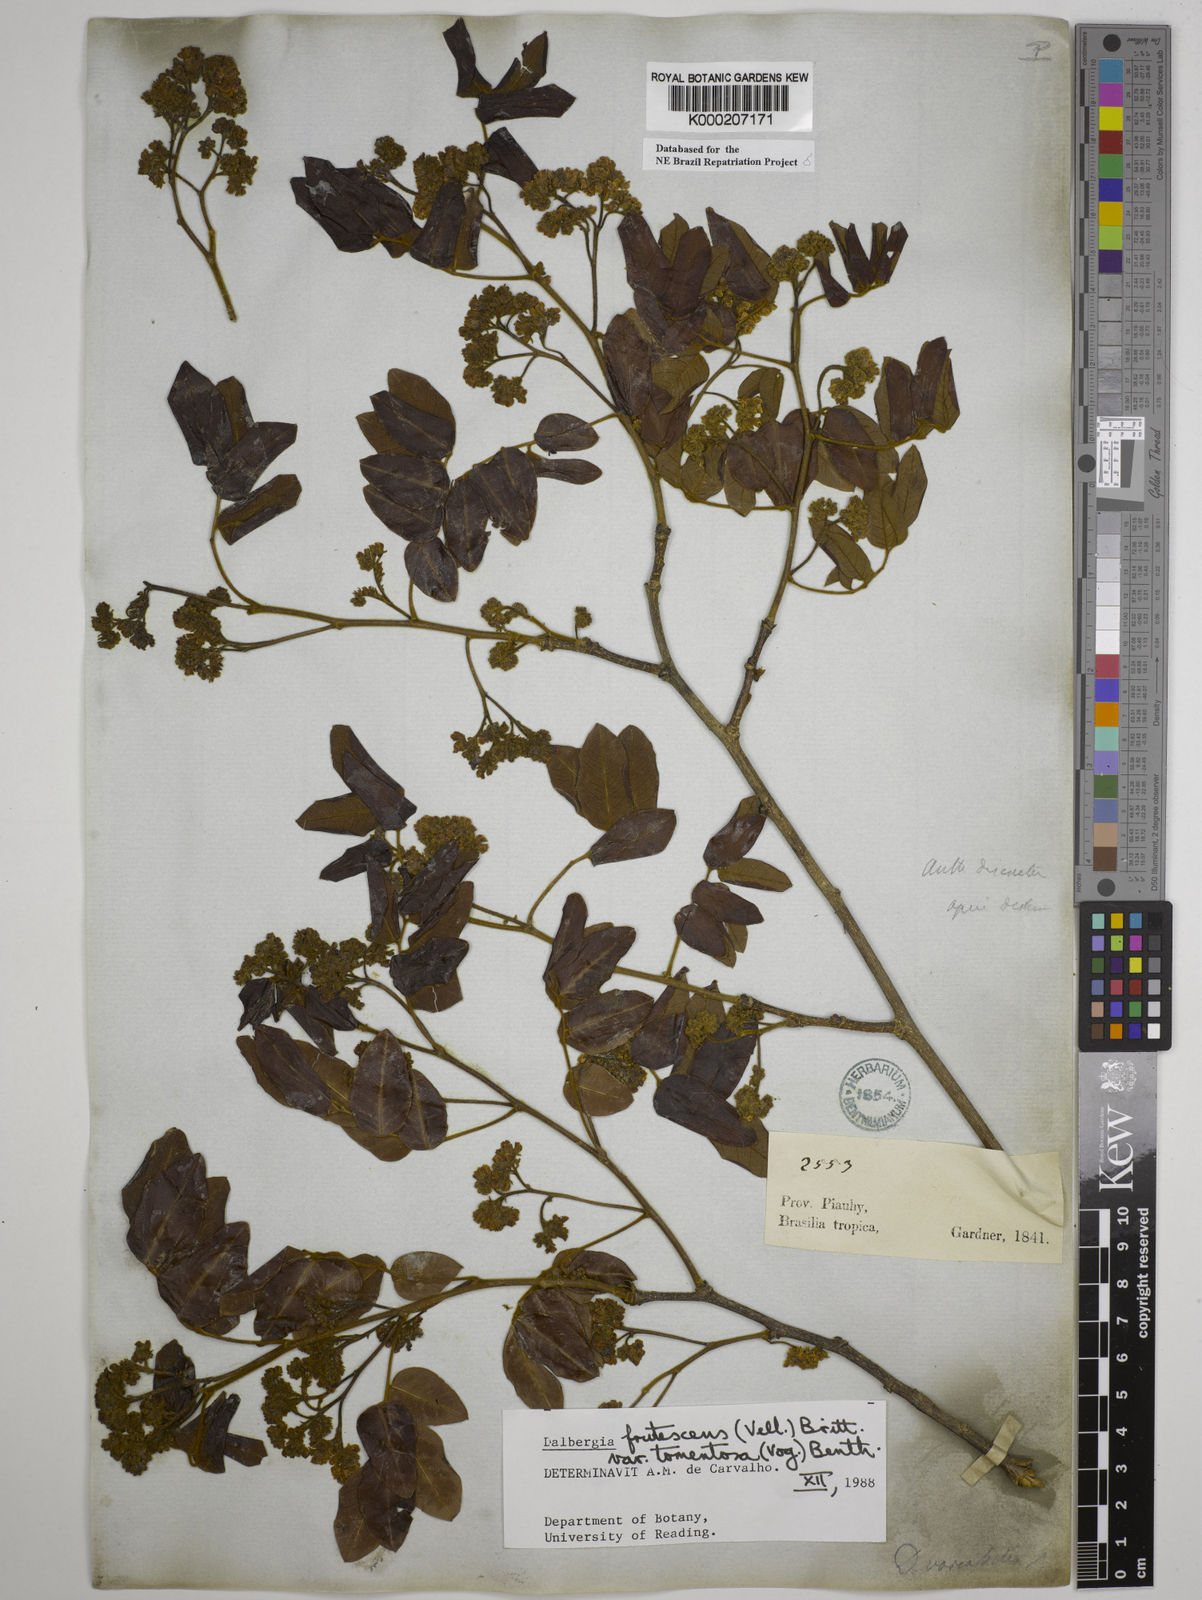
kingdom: Plantae
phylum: Tracheophyta
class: Magnoliopsida
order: Fabales
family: Fabaceae
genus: Dalbergia
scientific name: Dalbergia frutescens
